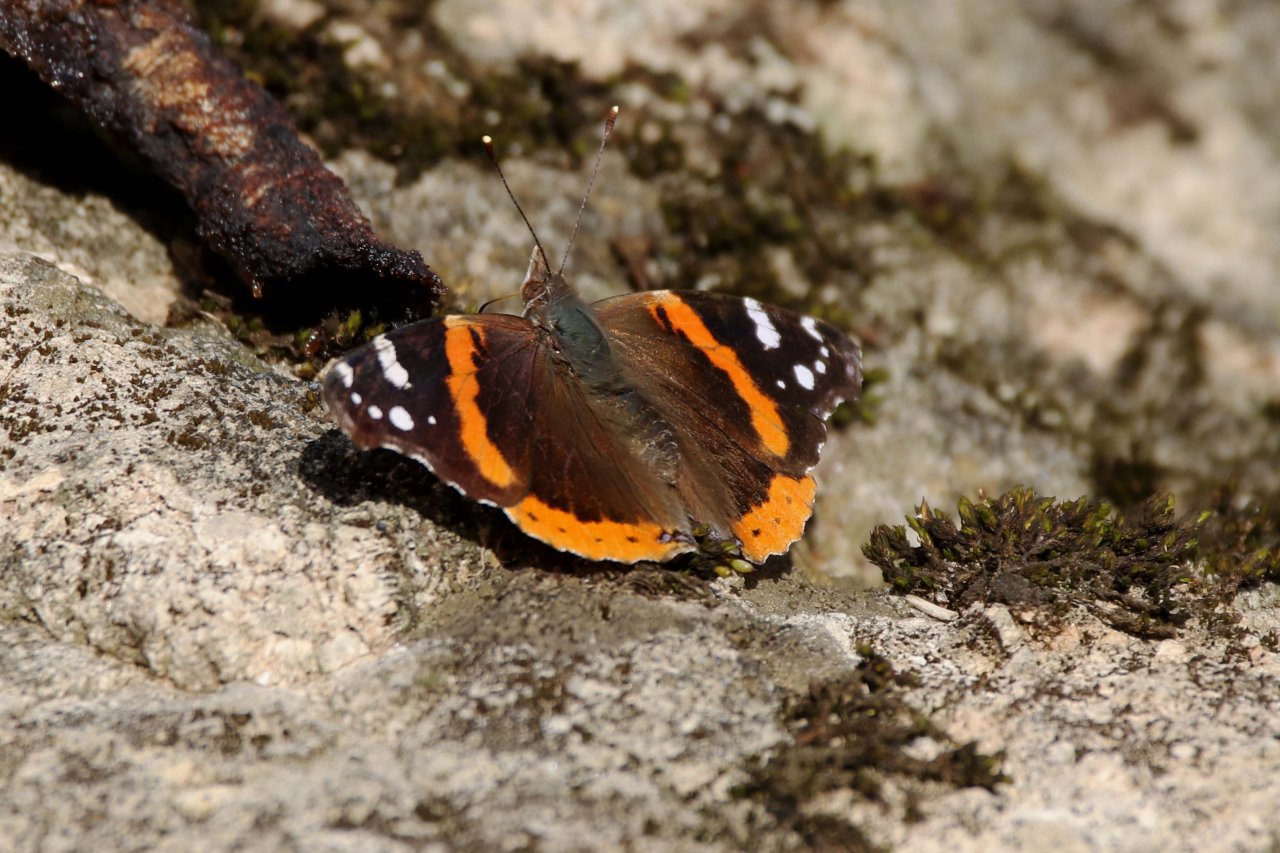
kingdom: Animalia
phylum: Arthropoda
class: Insecta
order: Lepidoptera
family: Nymphalidae
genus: Vanessa
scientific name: Vanessa atalanta
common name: Red Admiral
